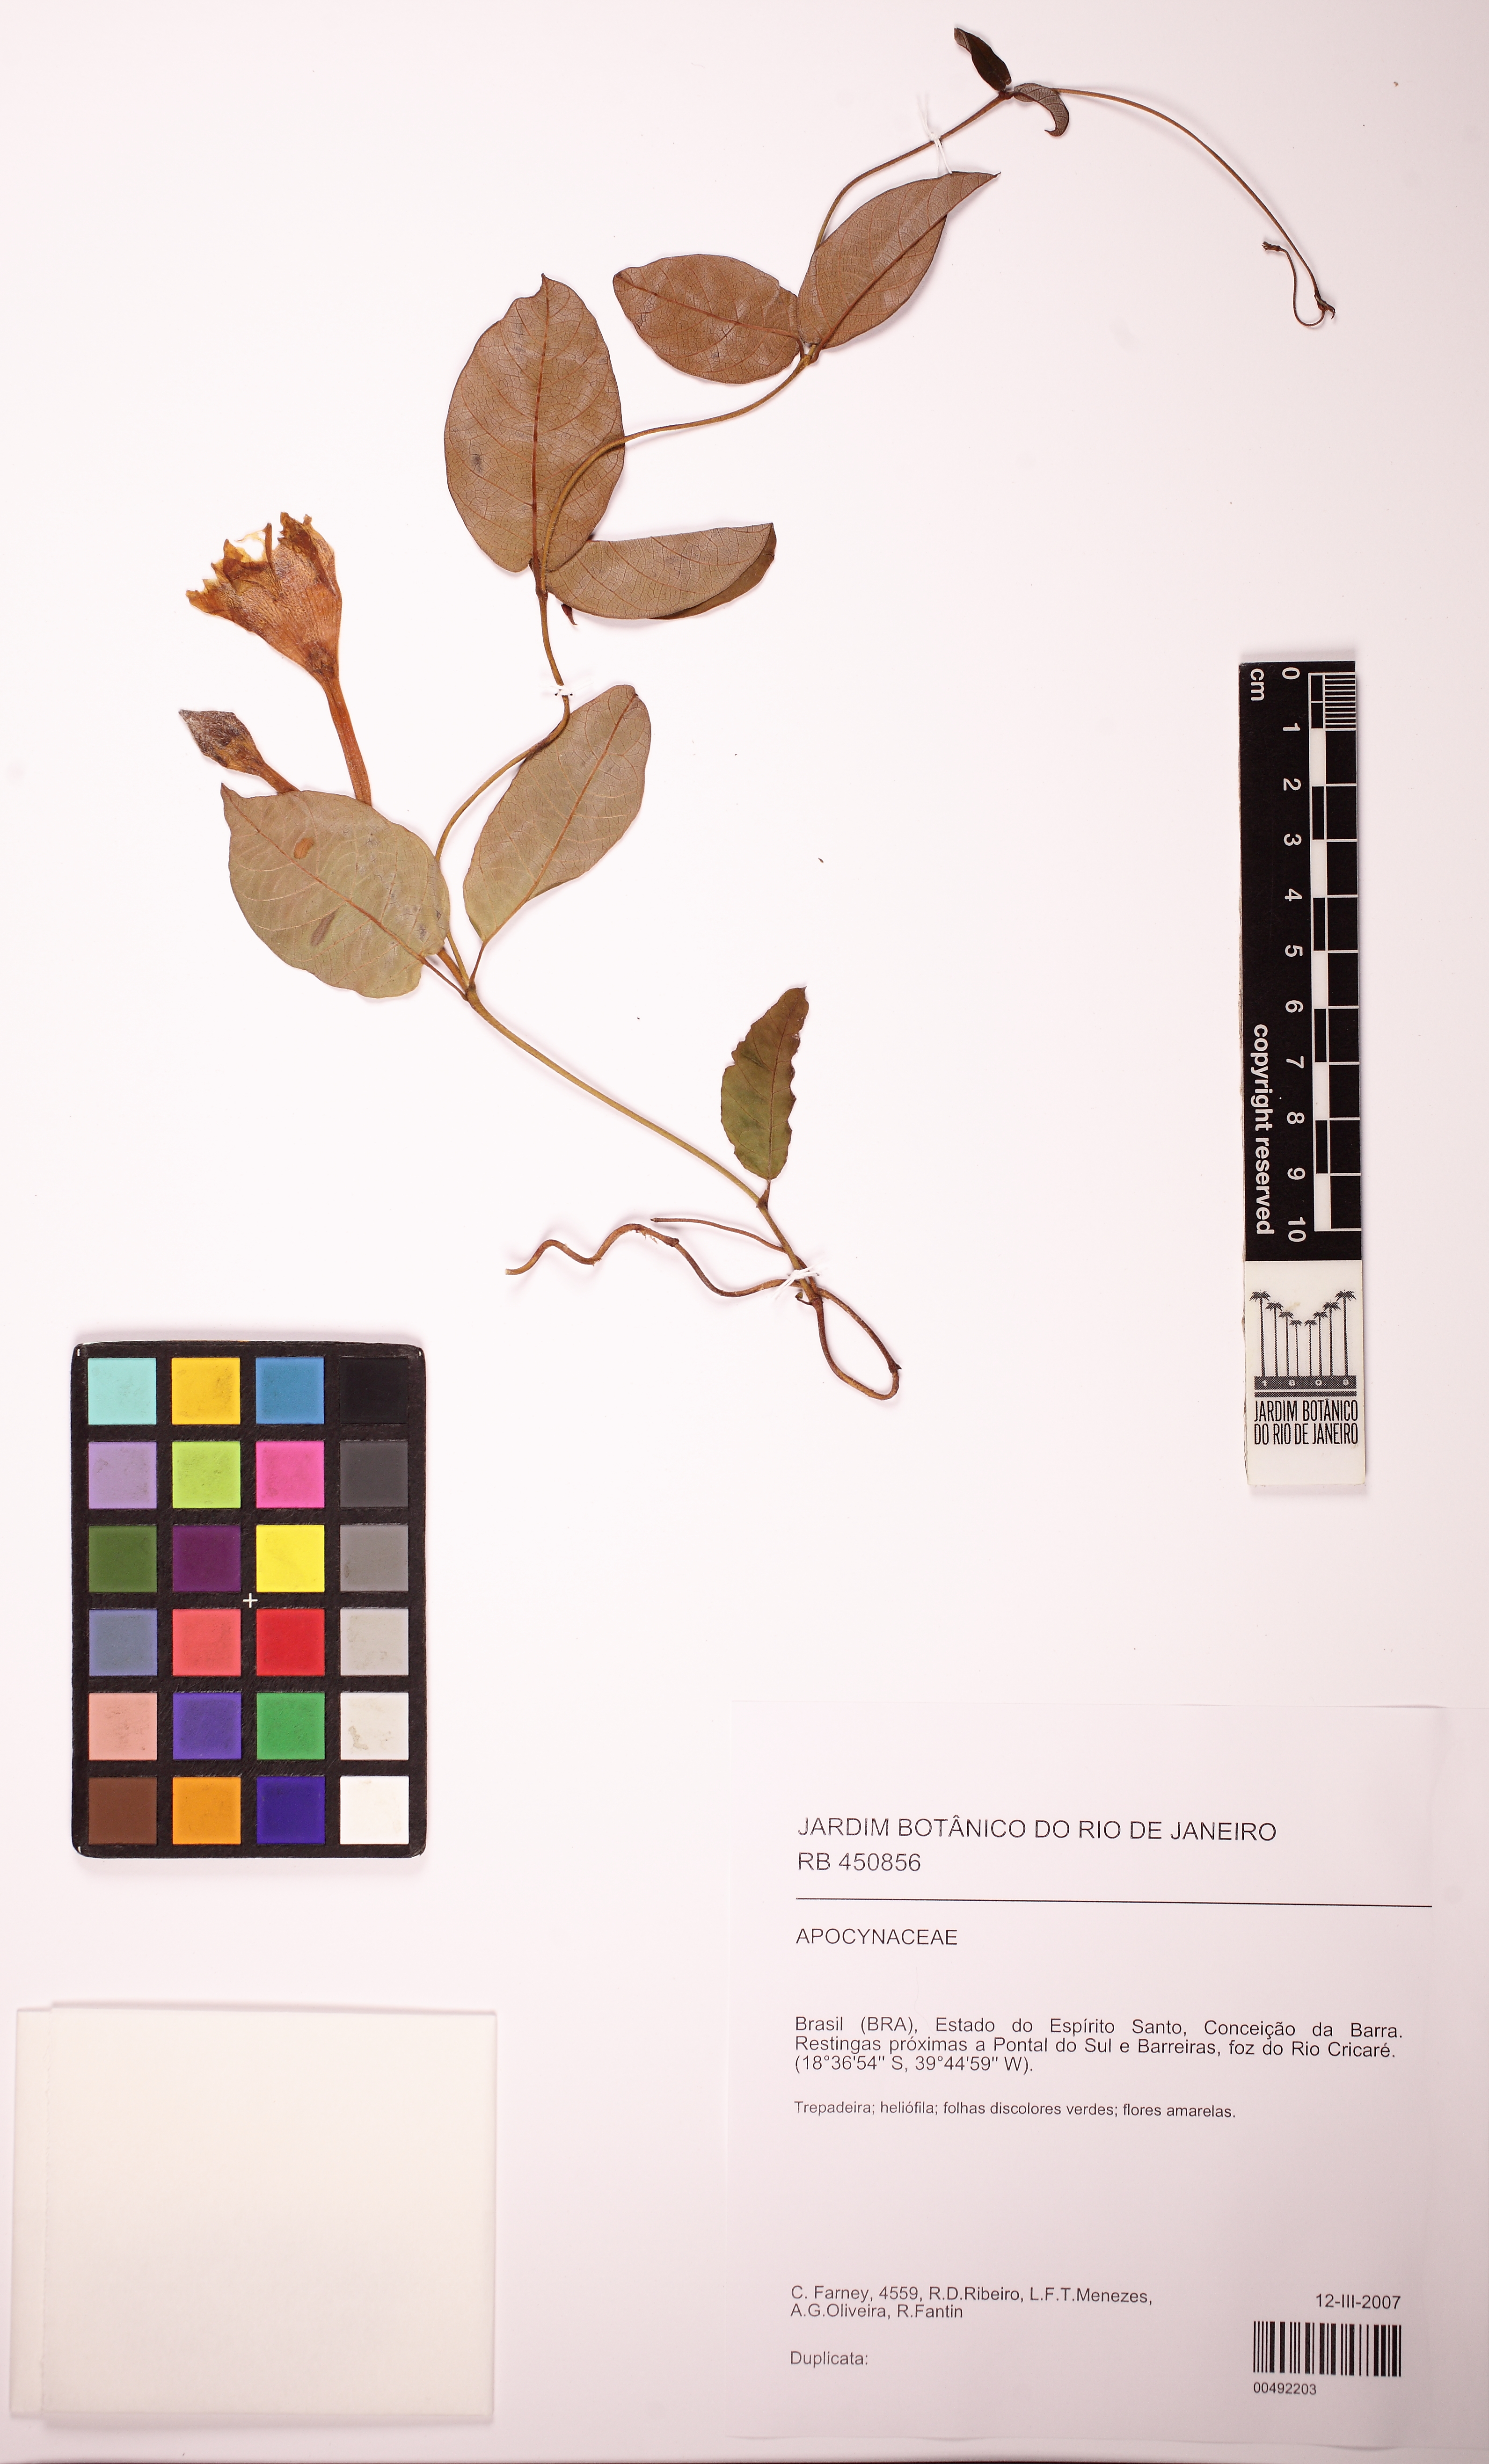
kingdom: Plantae
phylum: Tracheophyta
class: Magnoliopsida
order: Gentianales
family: Apocynaceae
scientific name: Apocynaceae
